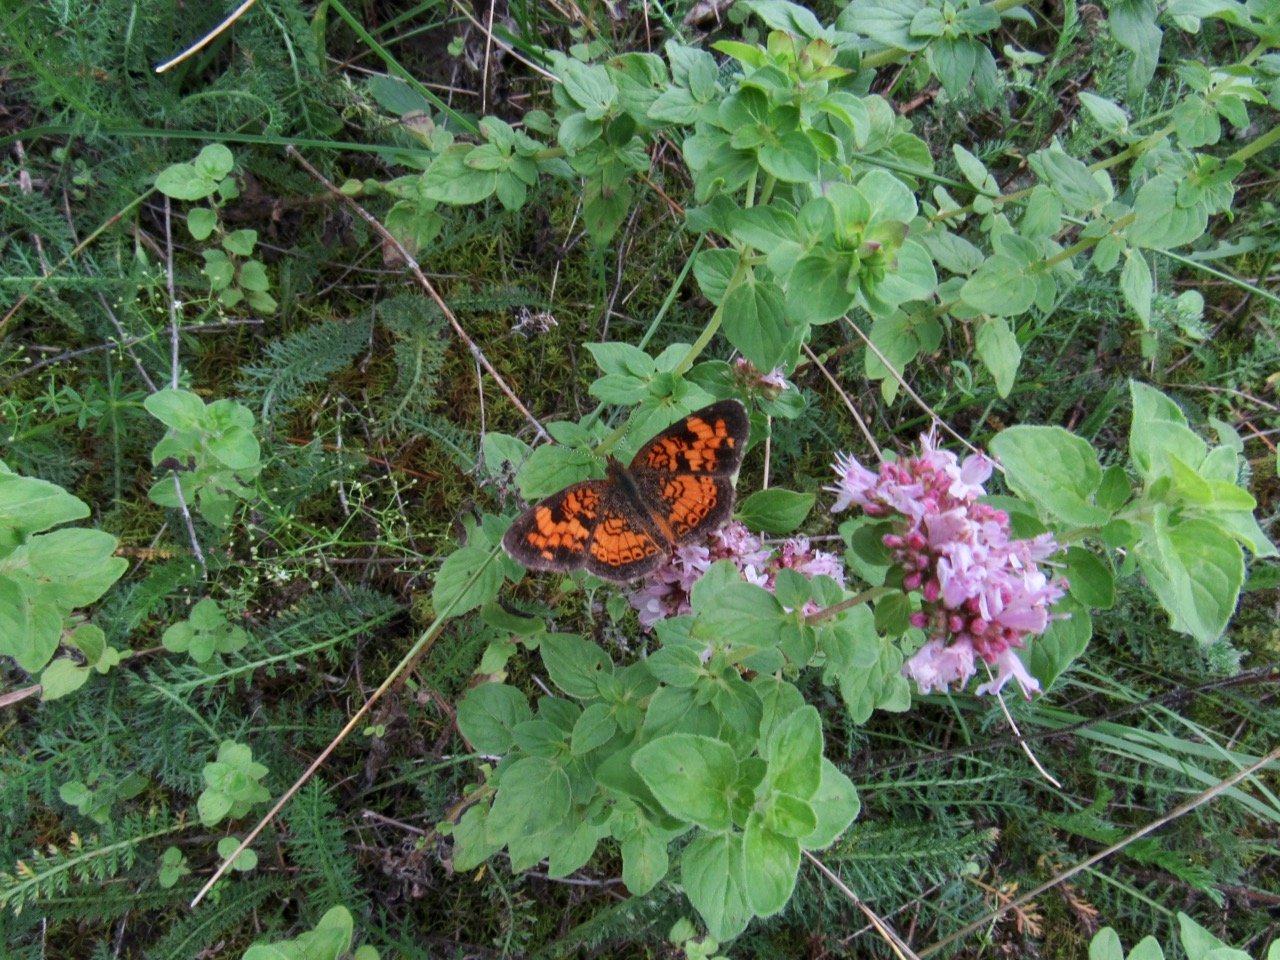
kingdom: Animalia
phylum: Arthropoda
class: Insecta
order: Lepidoptera
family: Nymphalidae
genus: Phyciodes
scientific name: Phyciodes tharos
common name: Pearl Crescent
